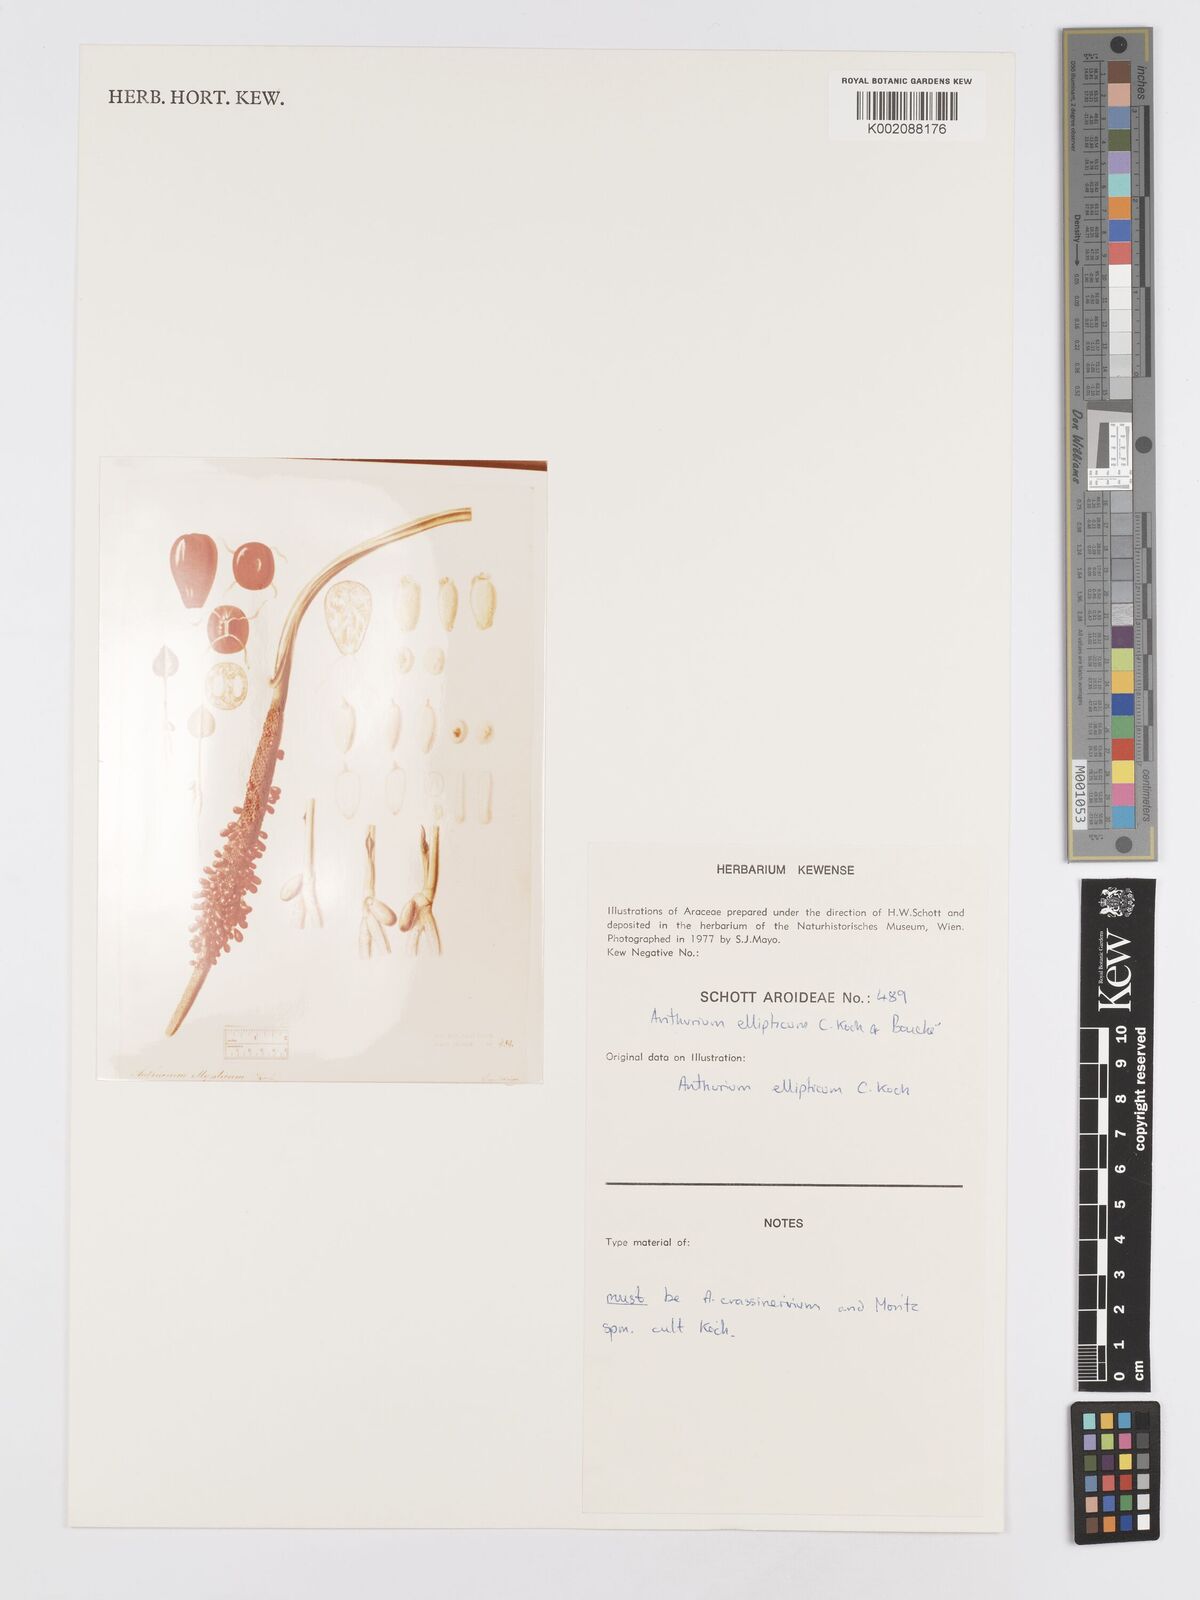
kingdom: Plantae
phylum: Tracheophyta
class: Liliopsida
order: Alismatales
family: Araceae
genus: Anthurium
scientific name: Anthurium crassinervium
